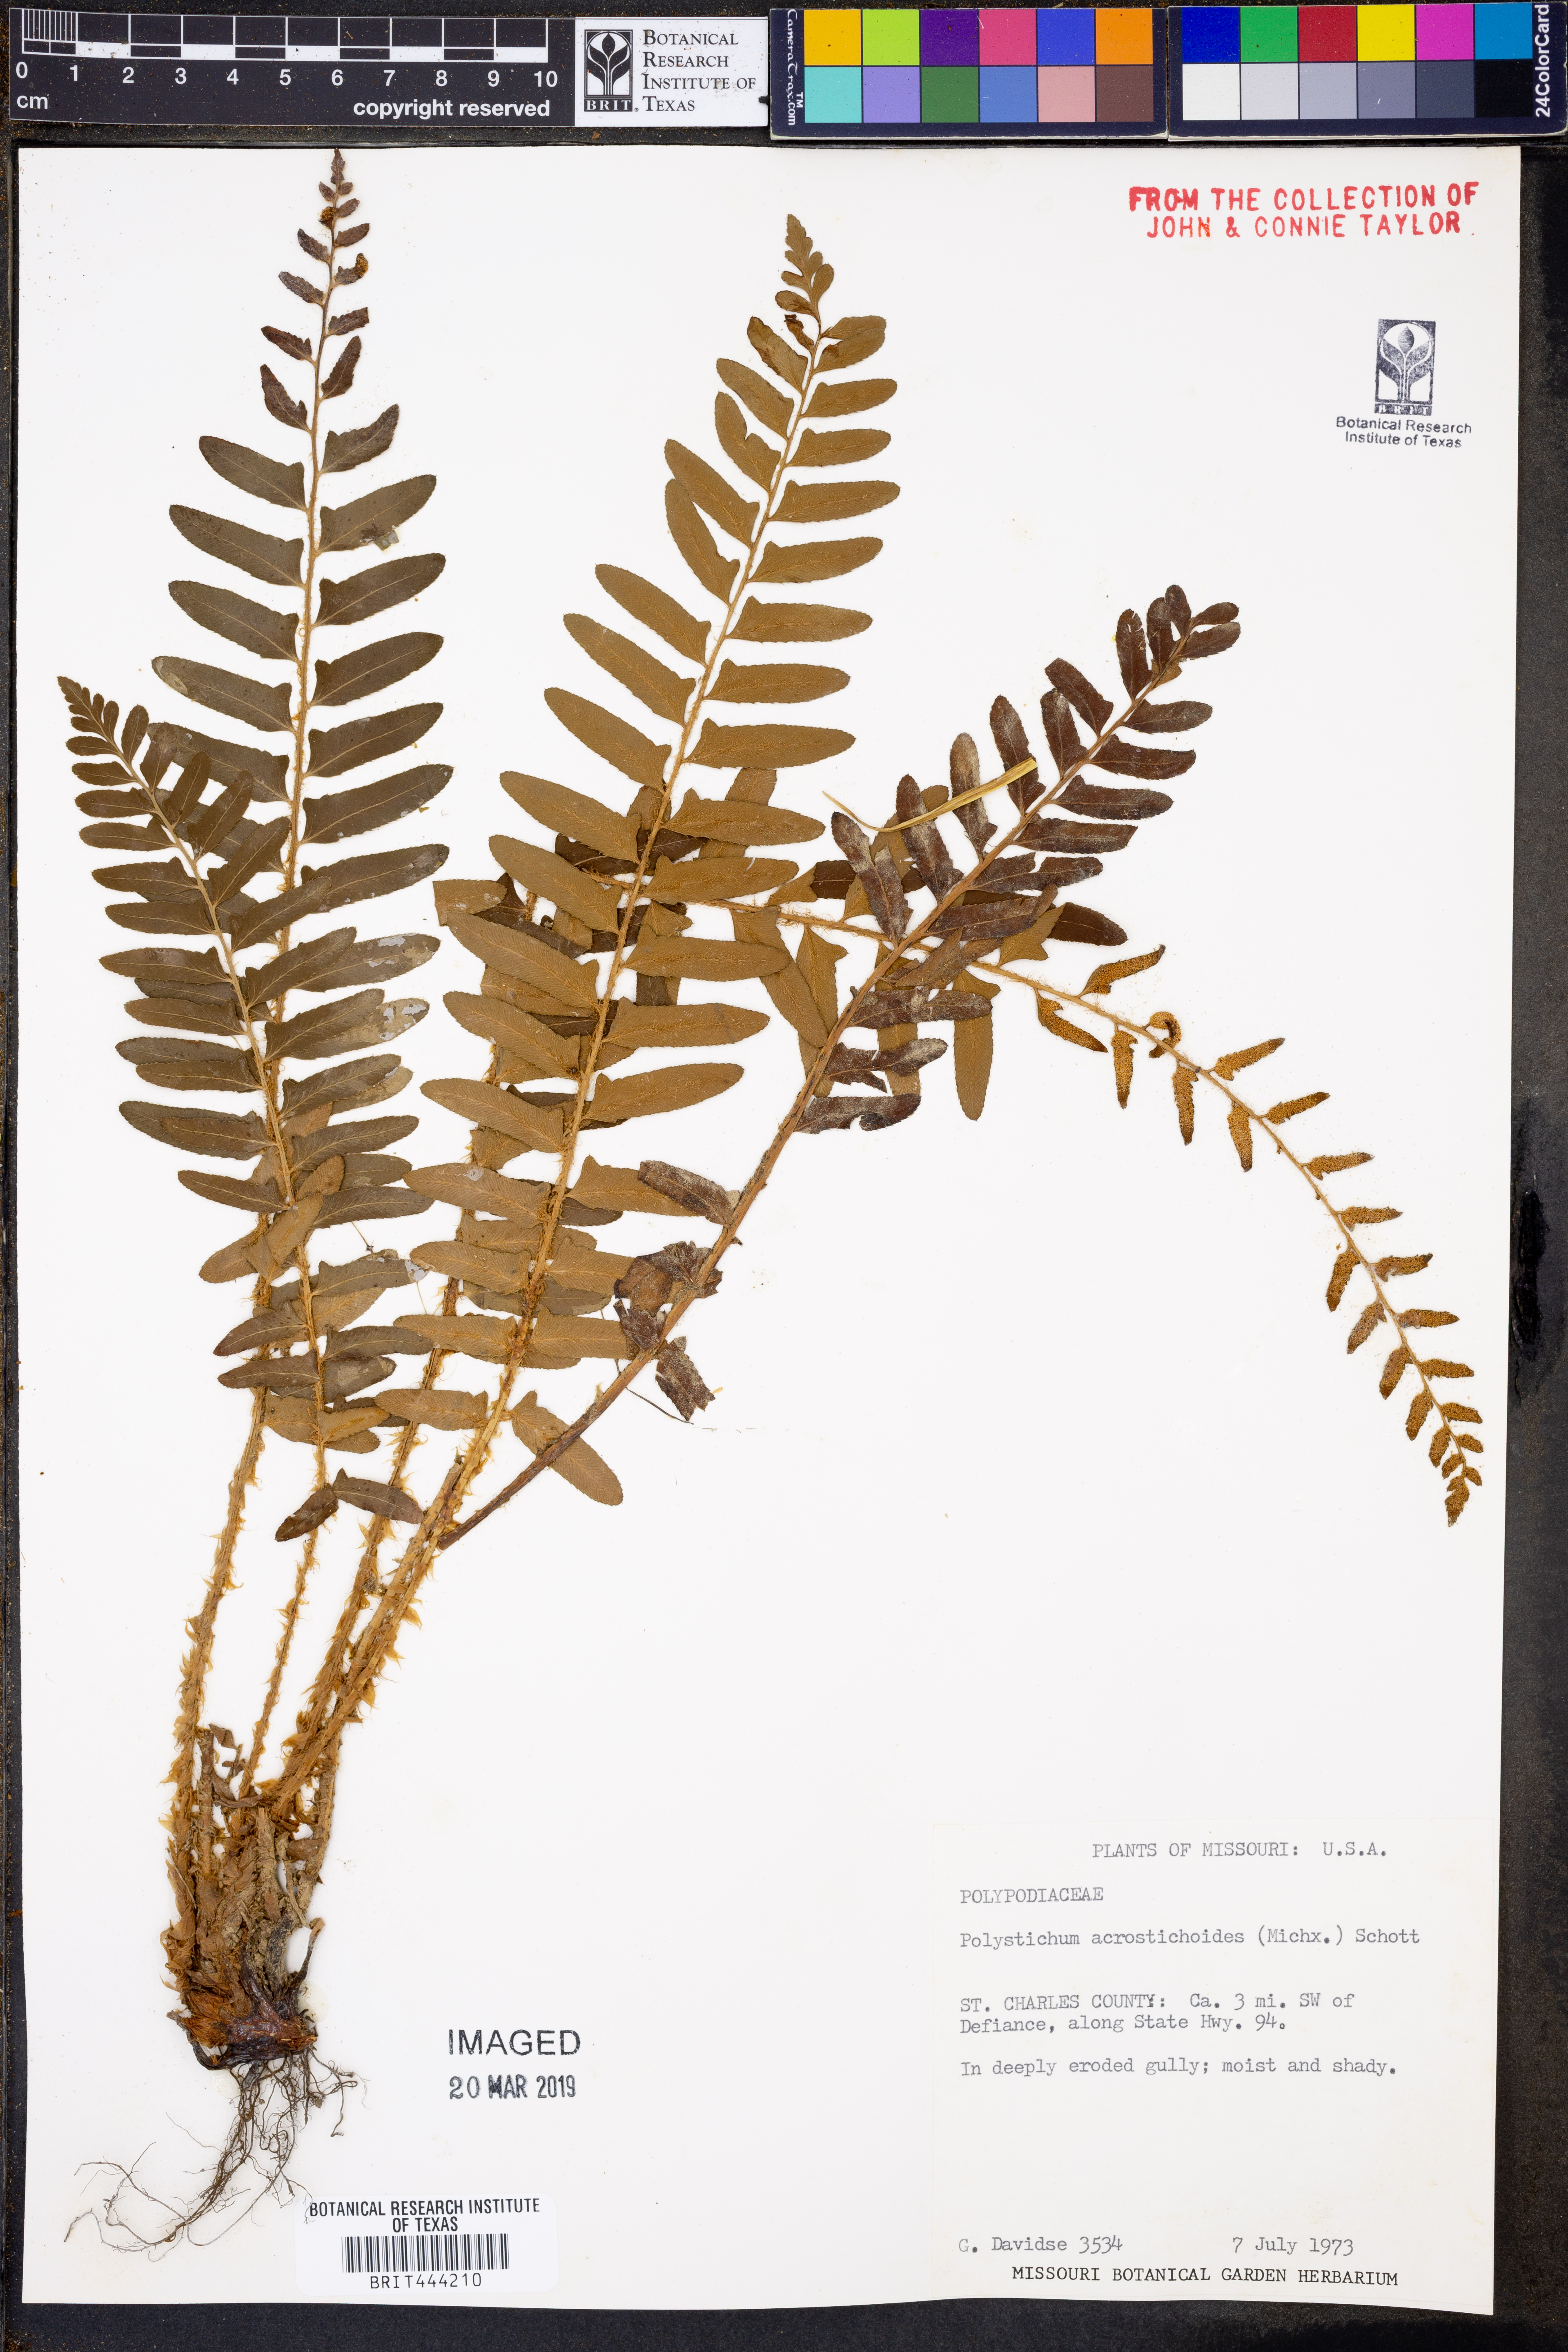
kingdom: Plantae
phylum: Tracheophyta
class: Polypodiopsida
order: Polypodiales
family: Dryopteridaceae
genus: Polystichum
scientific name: Polystichum acrostichoides
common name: Christmas fern
